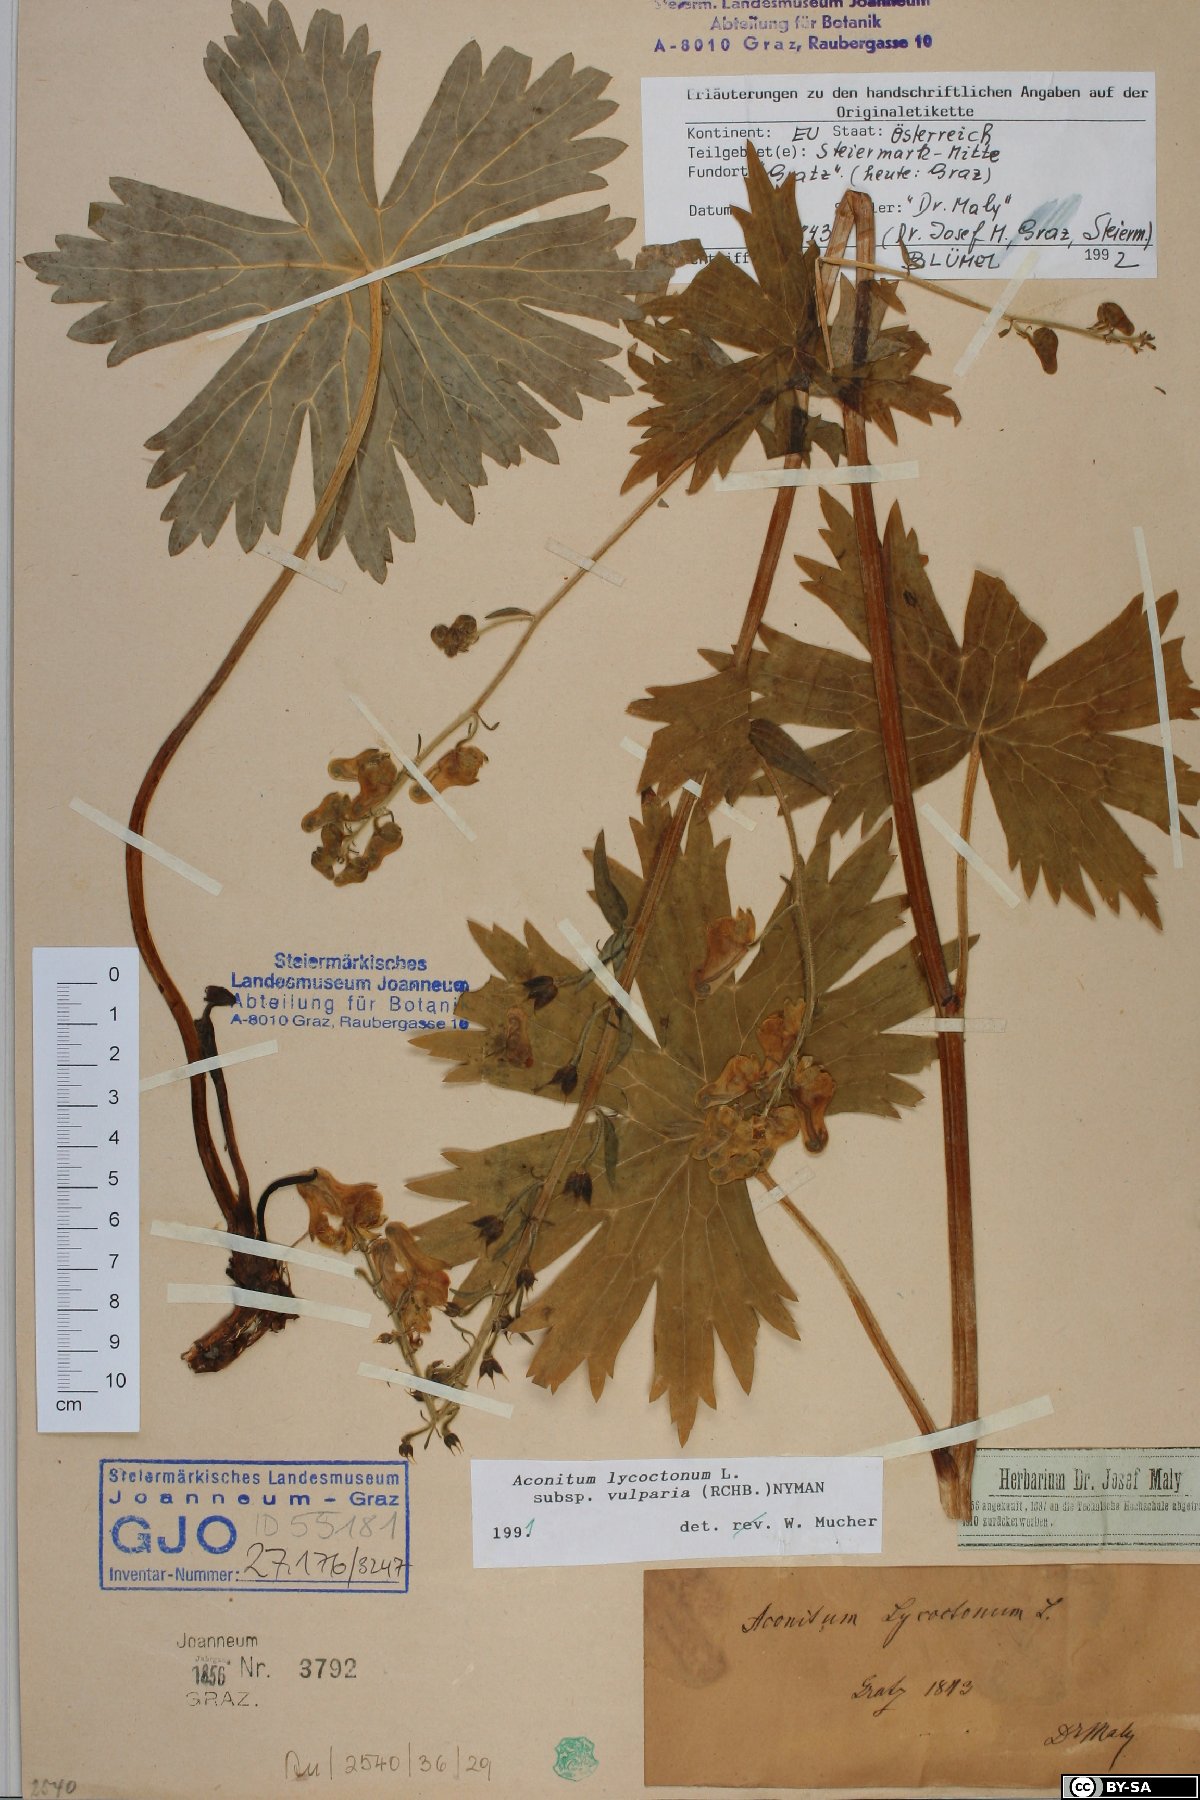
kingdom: Plantae
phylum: Tracheophyta
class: Magnoliopsida
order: Ranunculales
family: Ranunculaceae
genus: Aconitum
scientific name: Aconitum lycoctonum
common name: Wolf's-bane
